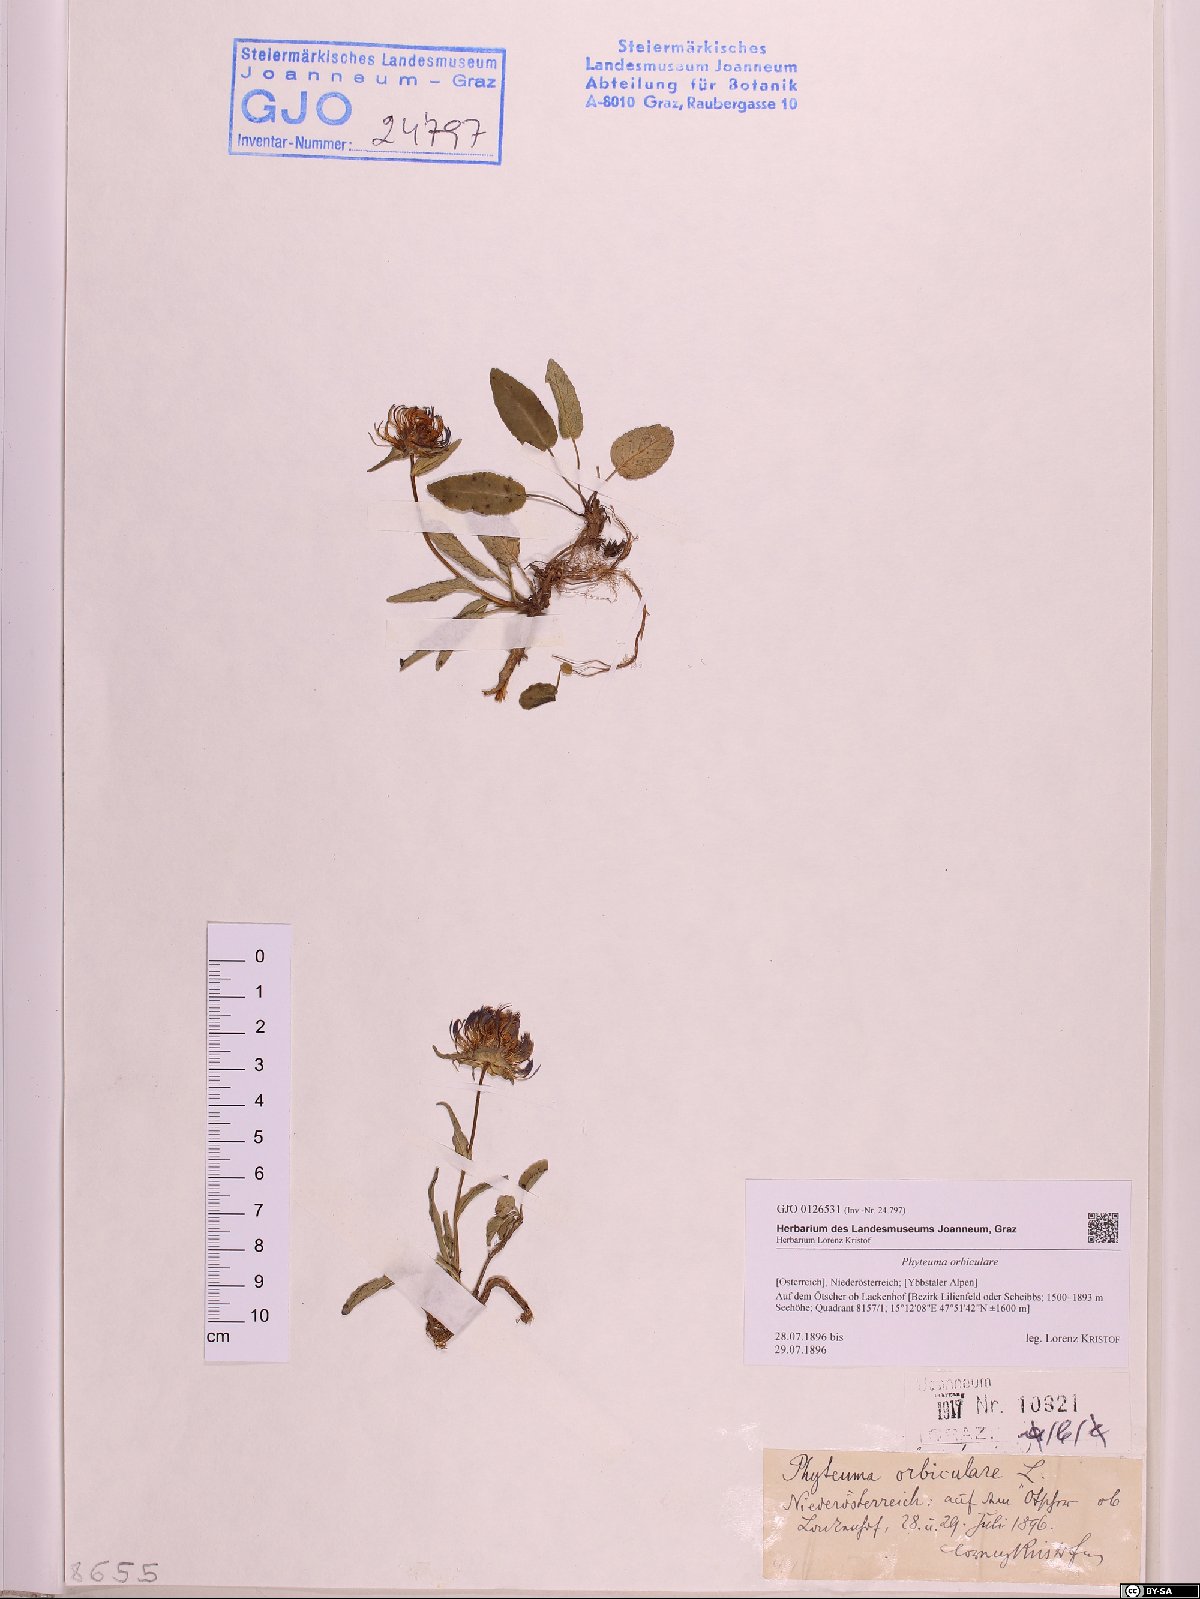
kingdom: Plantae
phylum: Tracheophyta
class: Magnoliopsida
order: Asterales
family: Campanulaceae
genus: Phyteuma
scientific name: Phyteuma orbiculare
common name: Round-headed rampion
